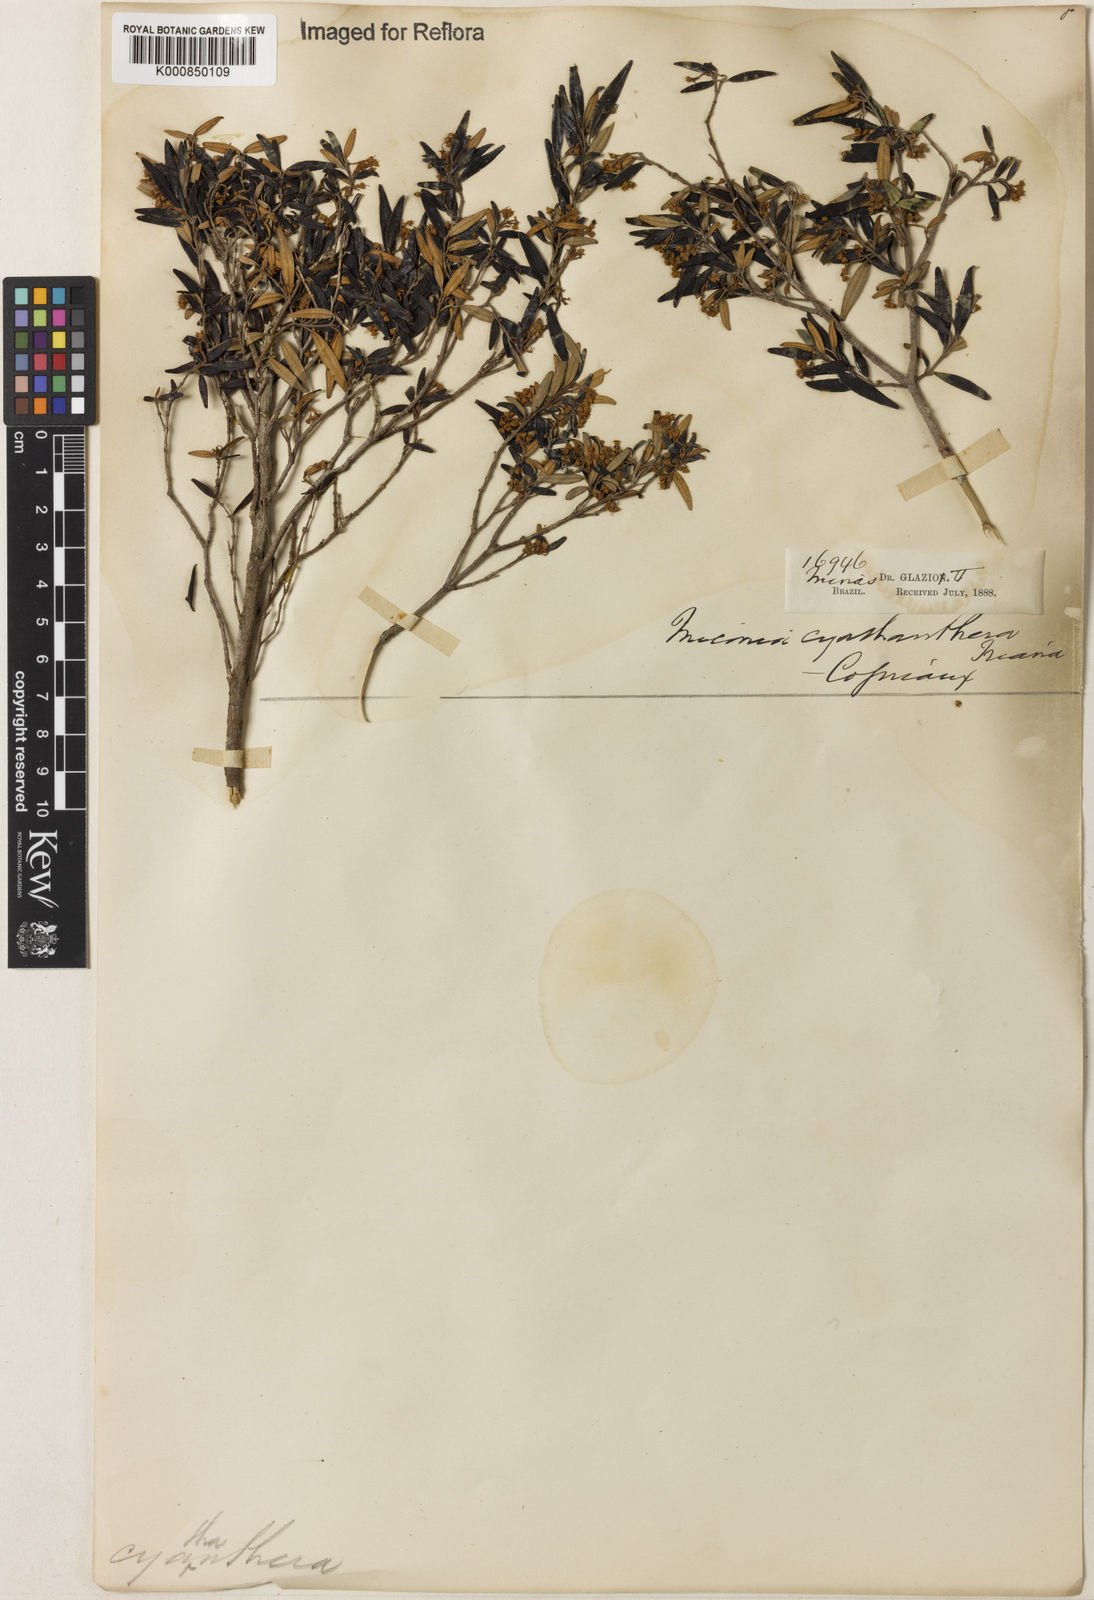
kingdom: Plantae
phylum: Tracheophyta
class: Magnoliopsida
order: Myrtales
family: Melastomataceae
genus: Miconia
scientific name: Miconia cyathanthera
